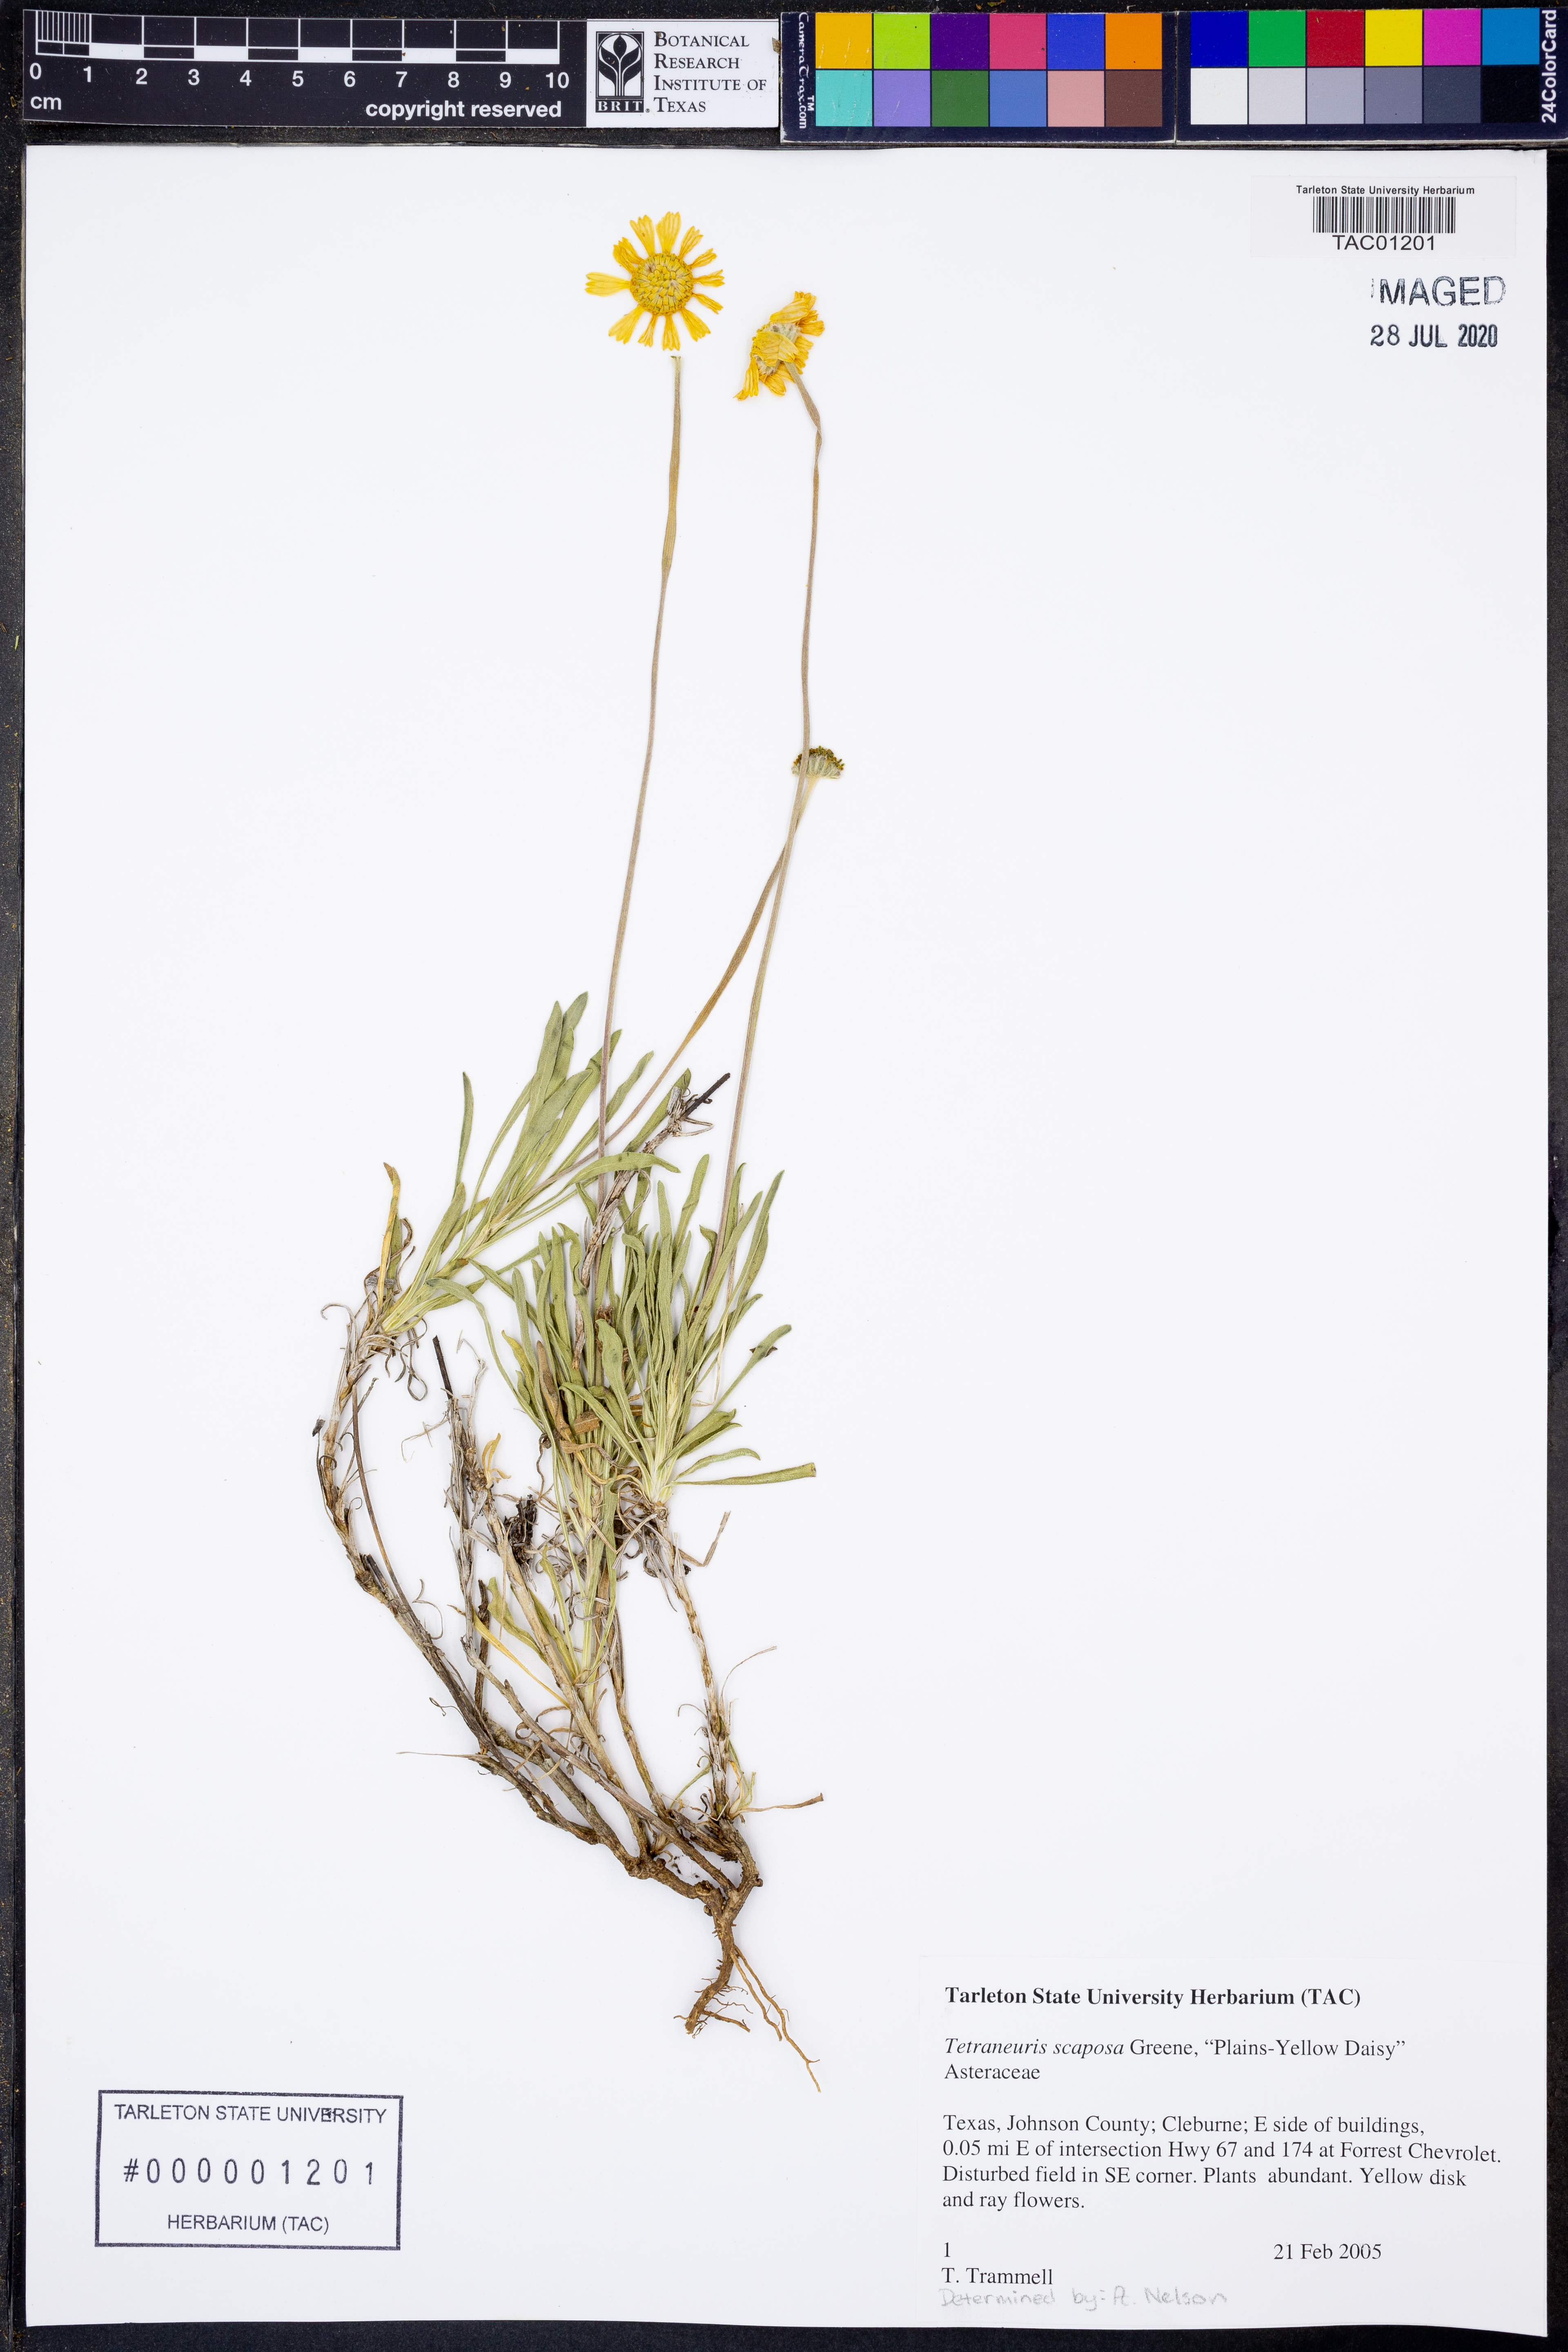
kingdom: Plantae
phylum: Tracheophyta
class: Magnoliopsida
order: Asterales
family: Asteraceae
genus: Tetraneuris
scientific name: Tetraneuris scaposa
